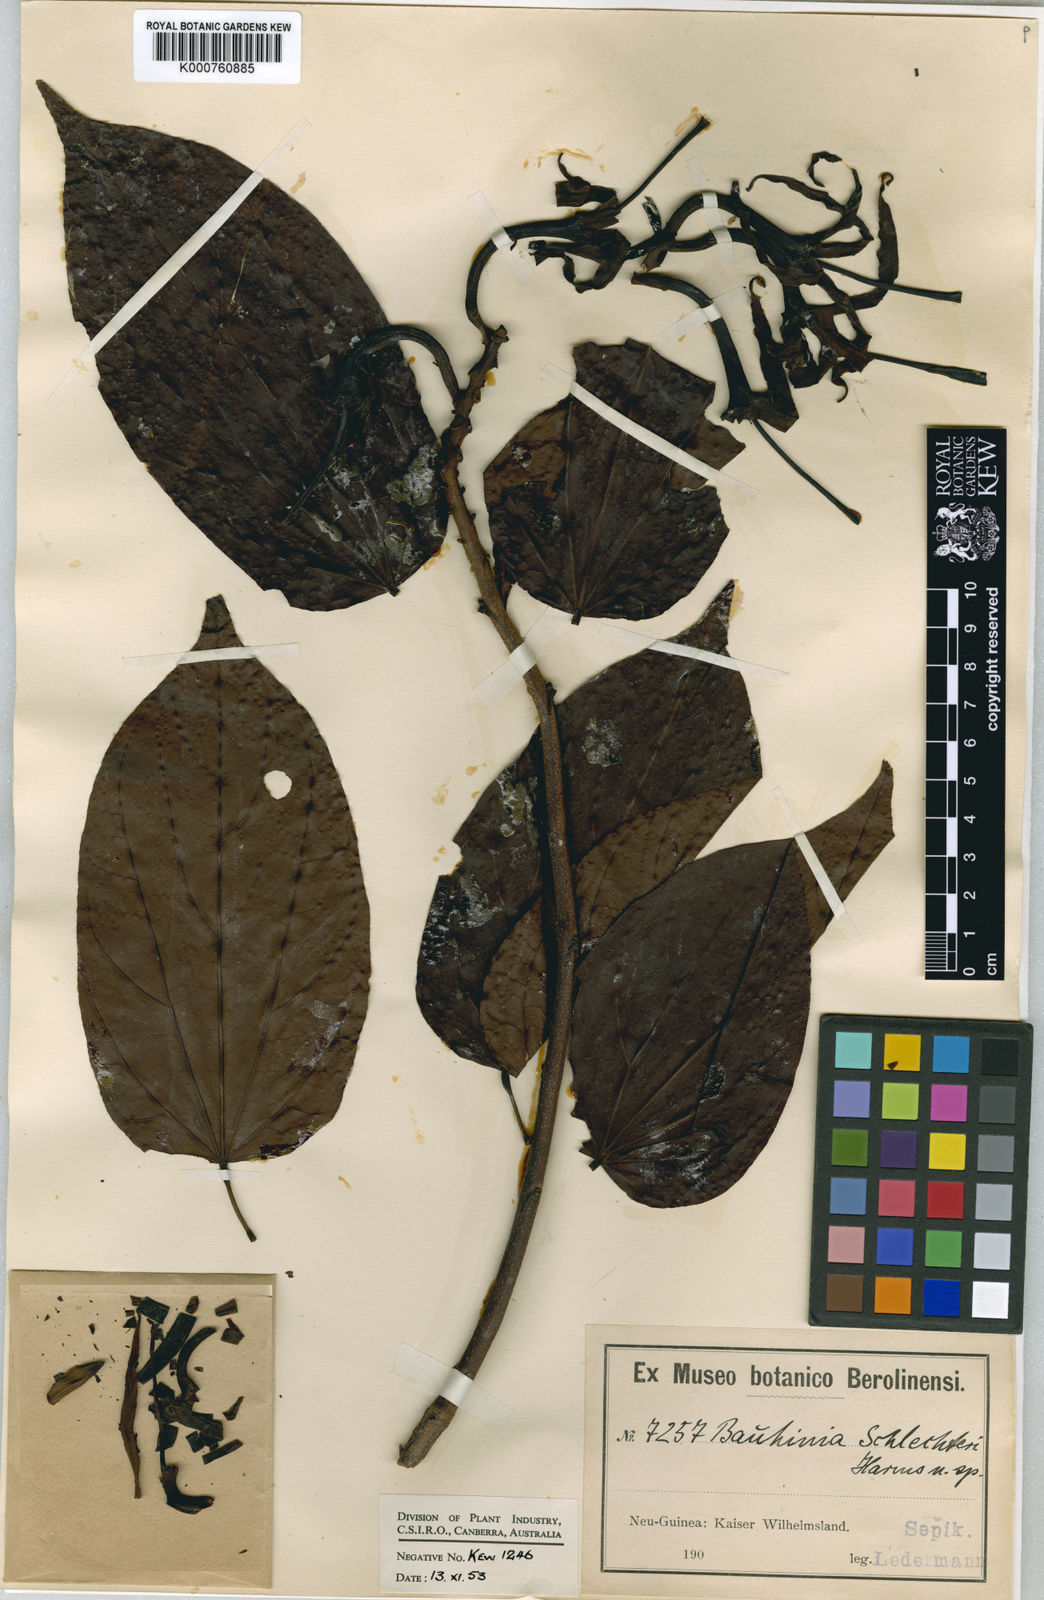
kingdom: Plantae
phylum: Tracheophyta
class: Magnoliopsida
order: Fabales
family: Fabaceae
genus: Gigasiphon
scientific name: Gigasiphon schlechteri
